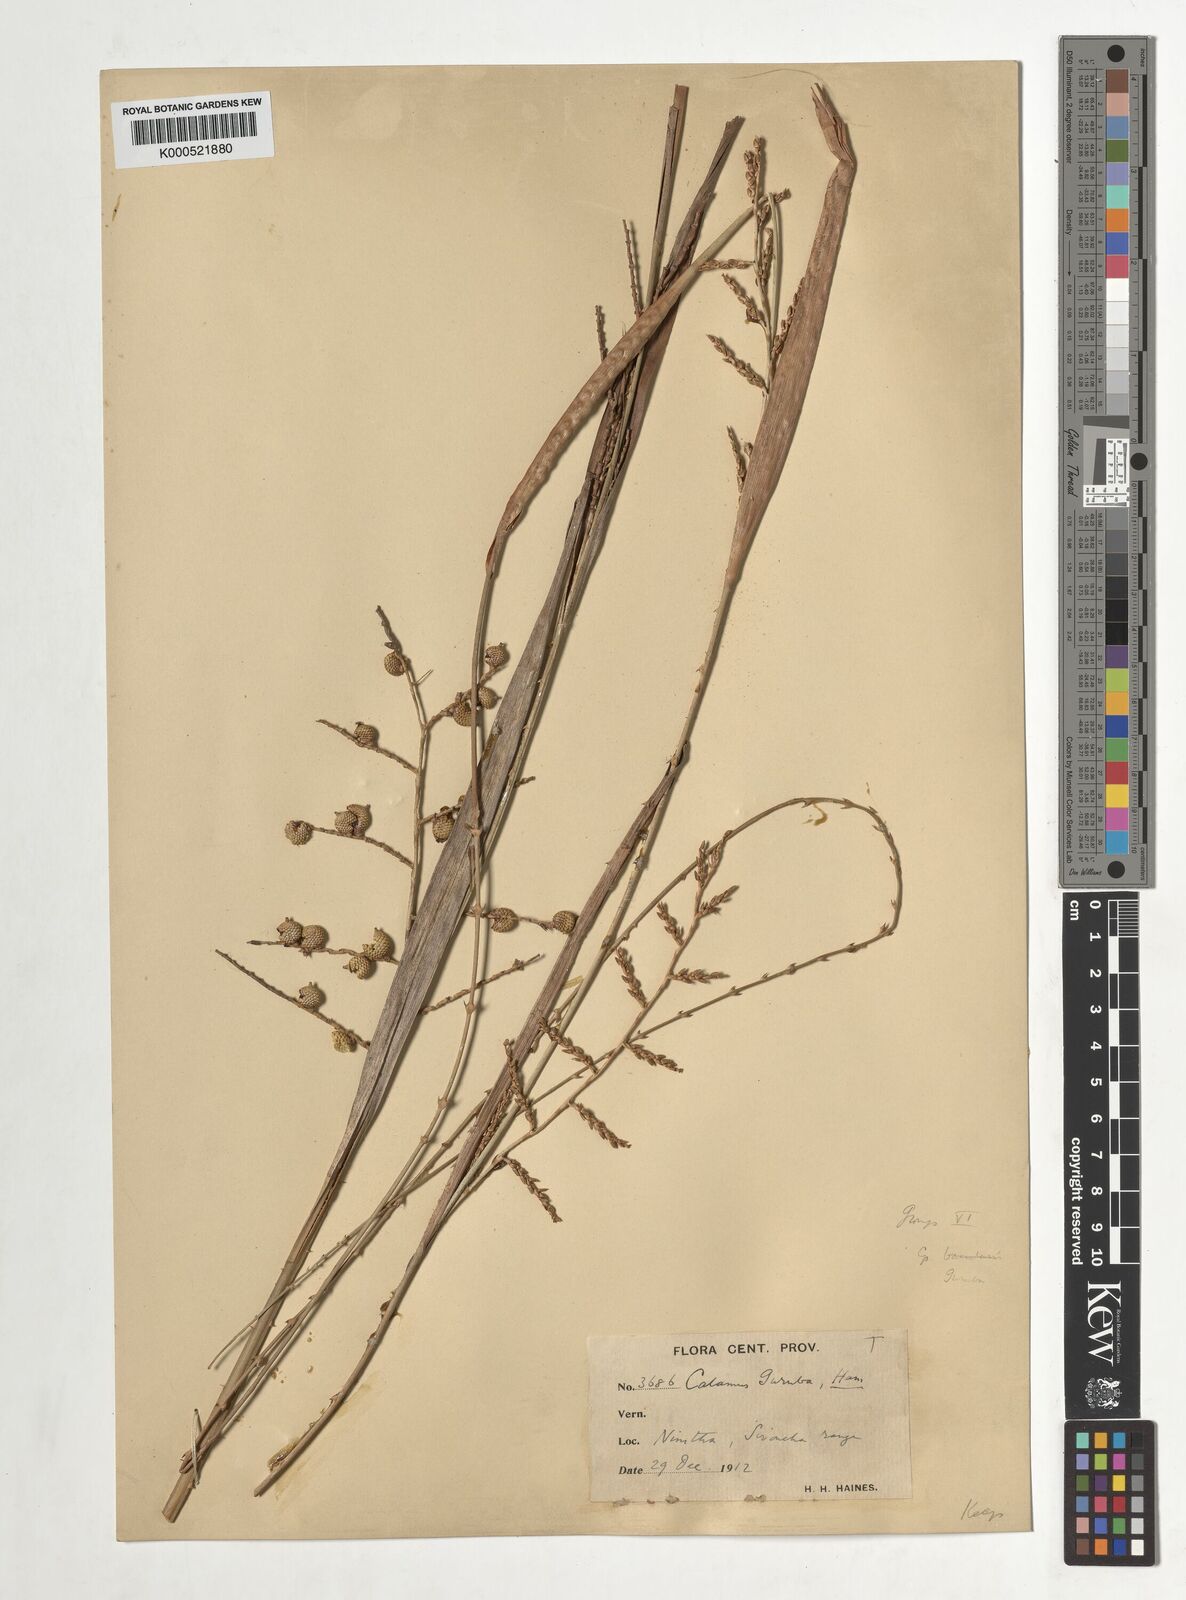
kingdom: Plantae
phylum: Tracheophyta
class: Liliopsida
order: Arecales
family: Arecaceae
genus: Calamus
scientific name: Calamus
